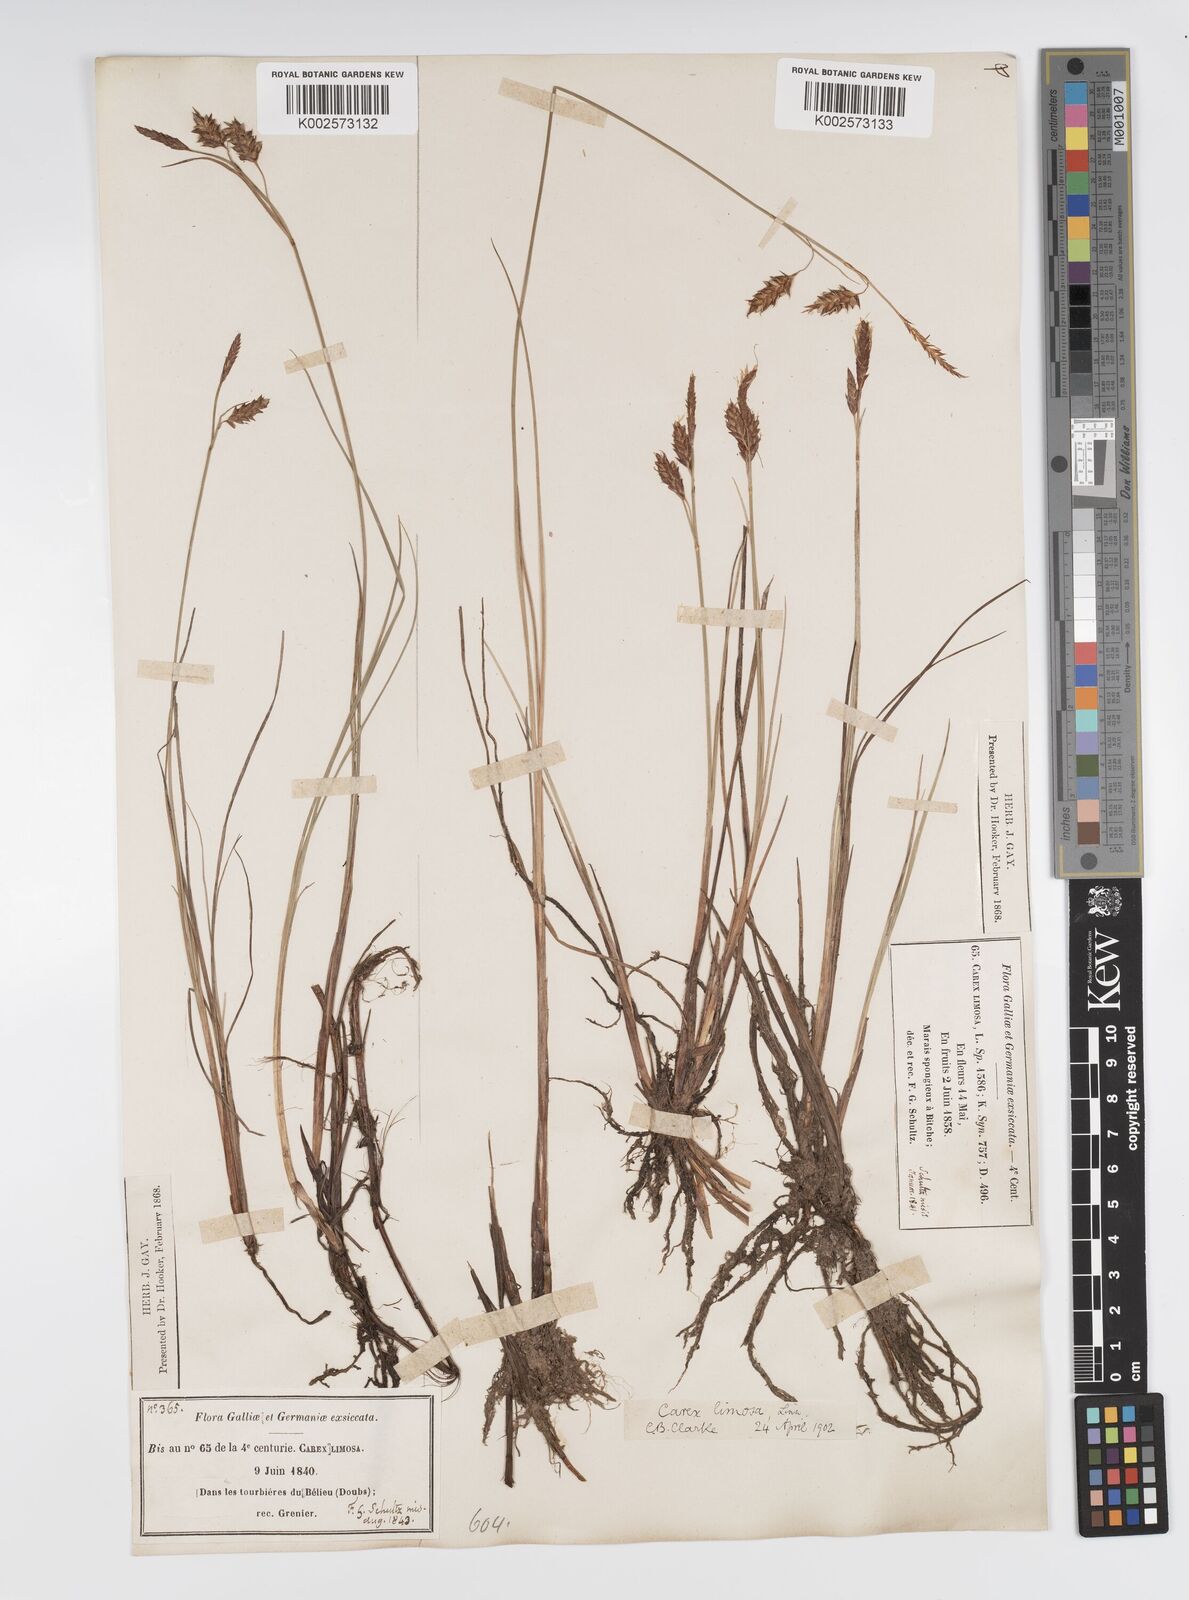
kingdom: Plantae
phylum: Tracheophyta
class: Liliopsida
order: Poales
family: Cyperaceae
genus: Carex
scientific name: Carex limosa
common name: Bog sedge
